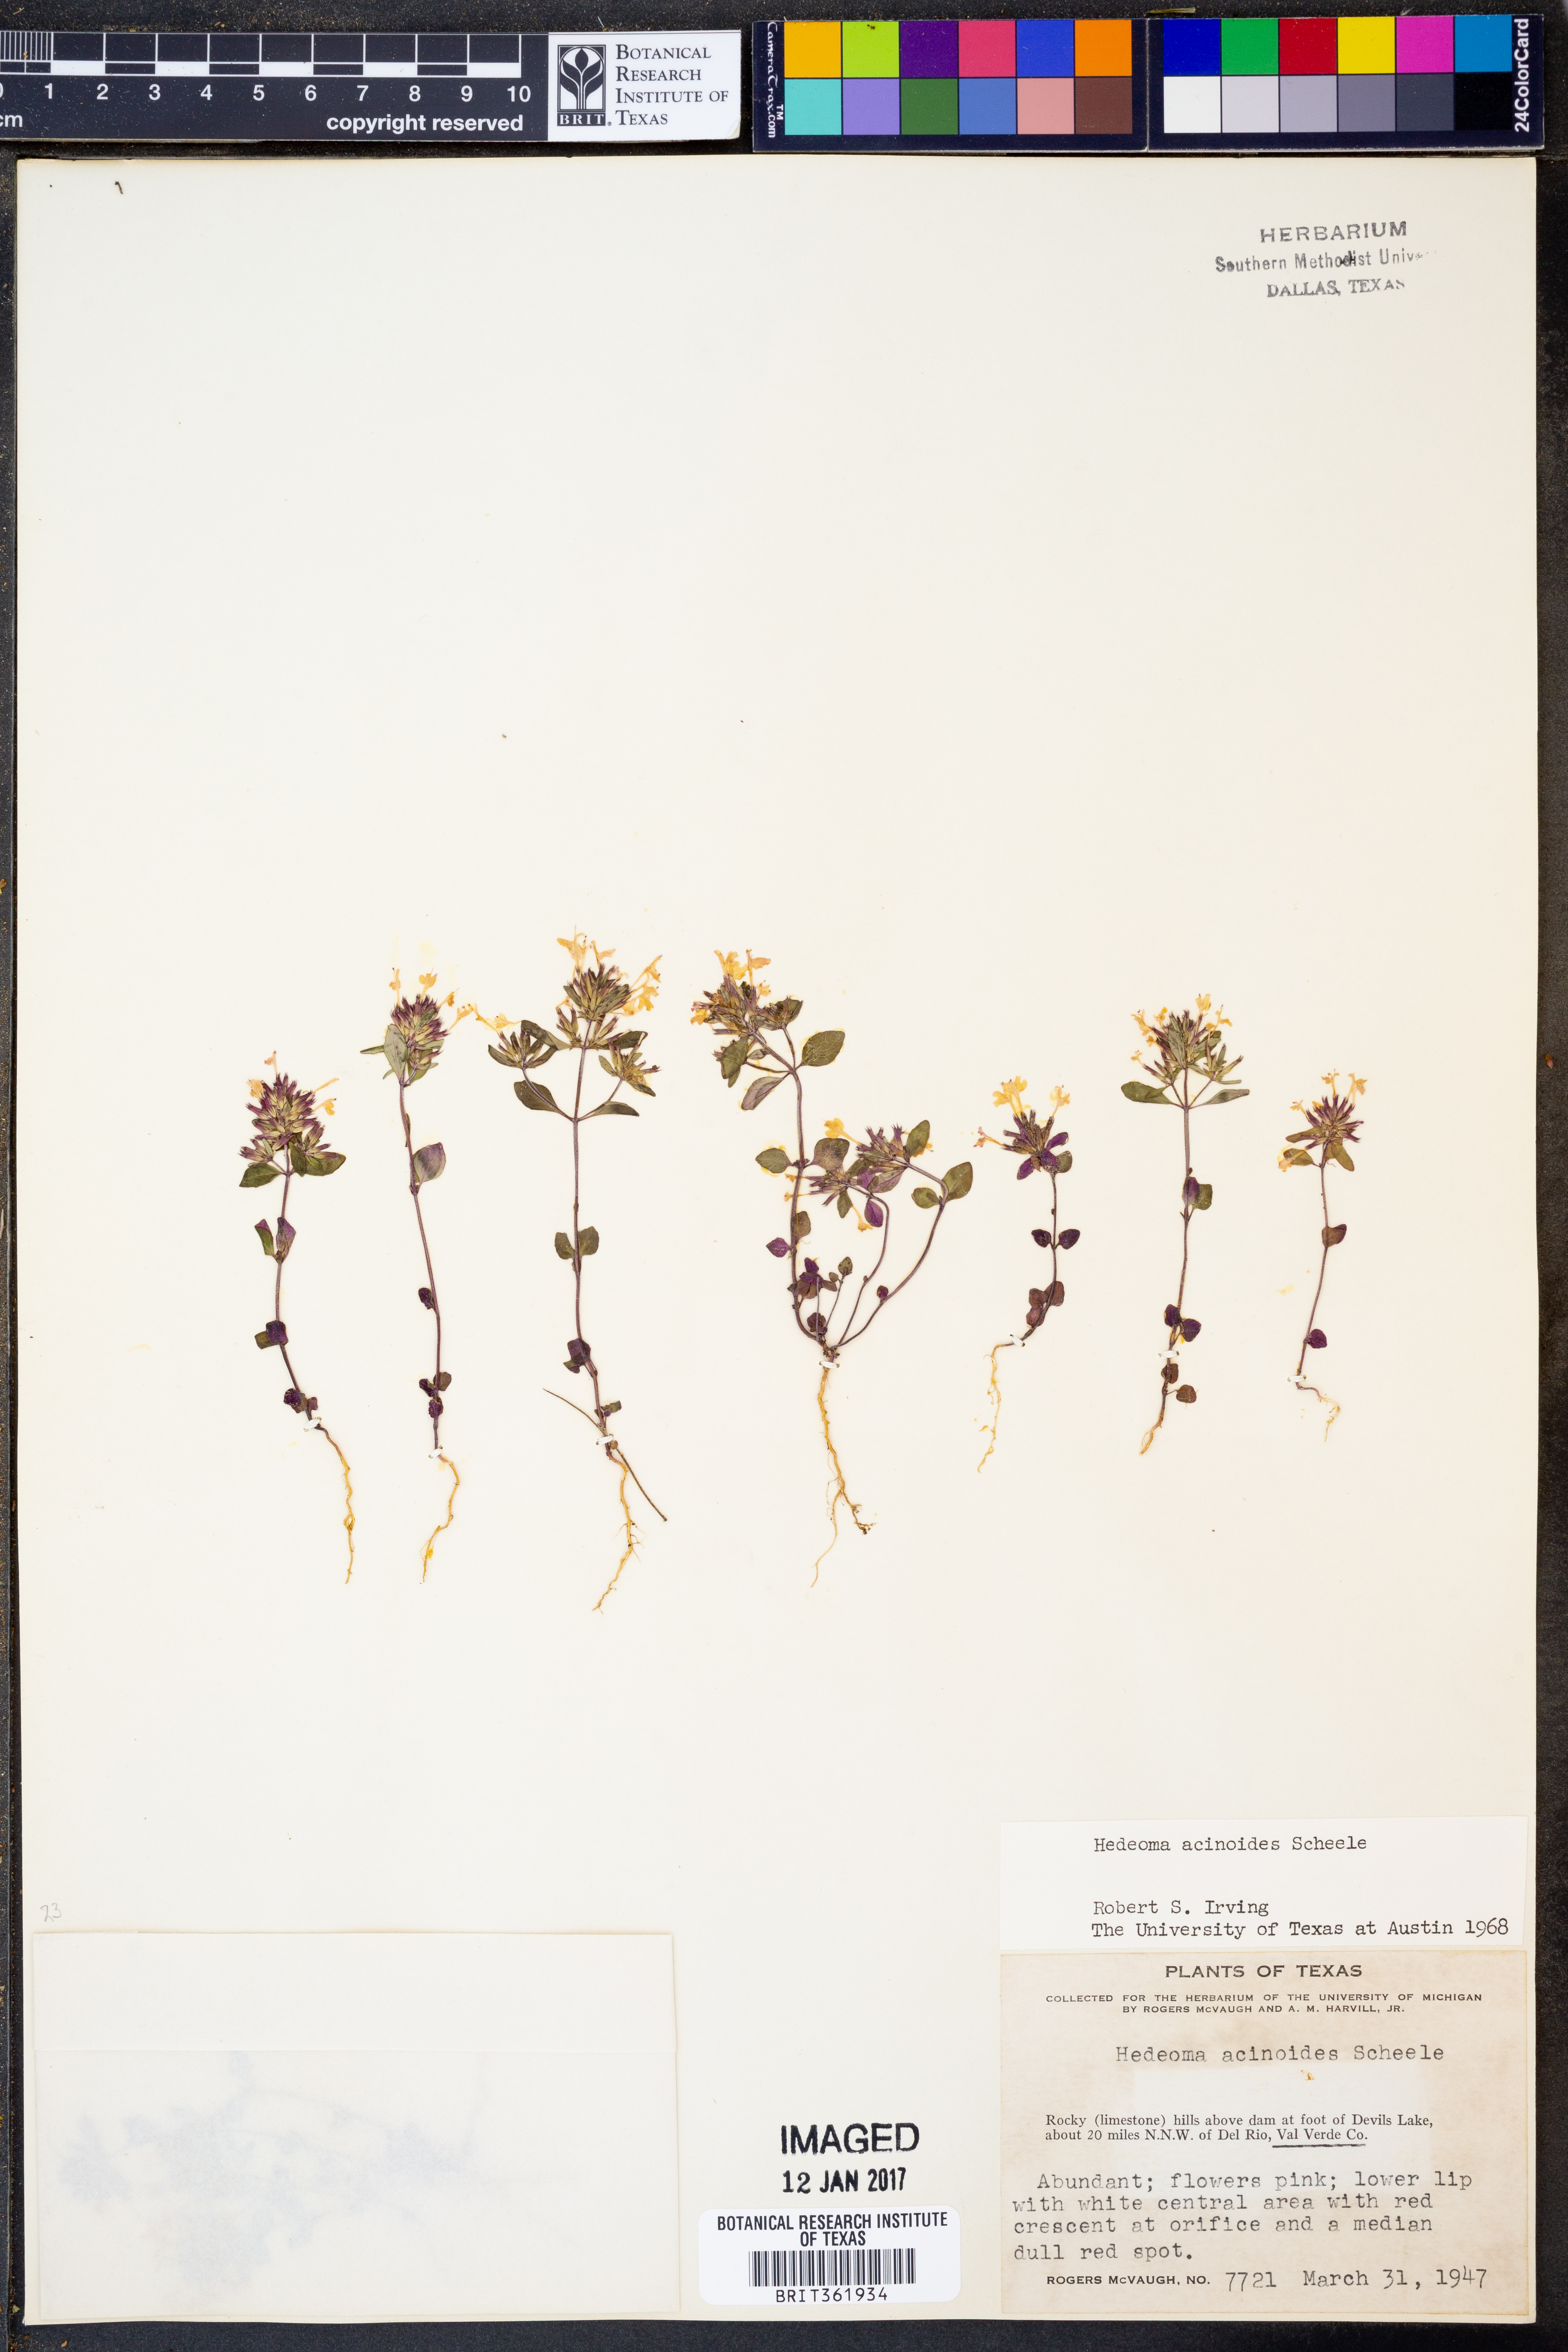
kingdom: Plantae
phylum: Tracheophyta
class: Magnoliopsida
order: Lamiales
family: Lamiaceae
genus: Hedeoma
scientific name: Hedeoma acinoides
